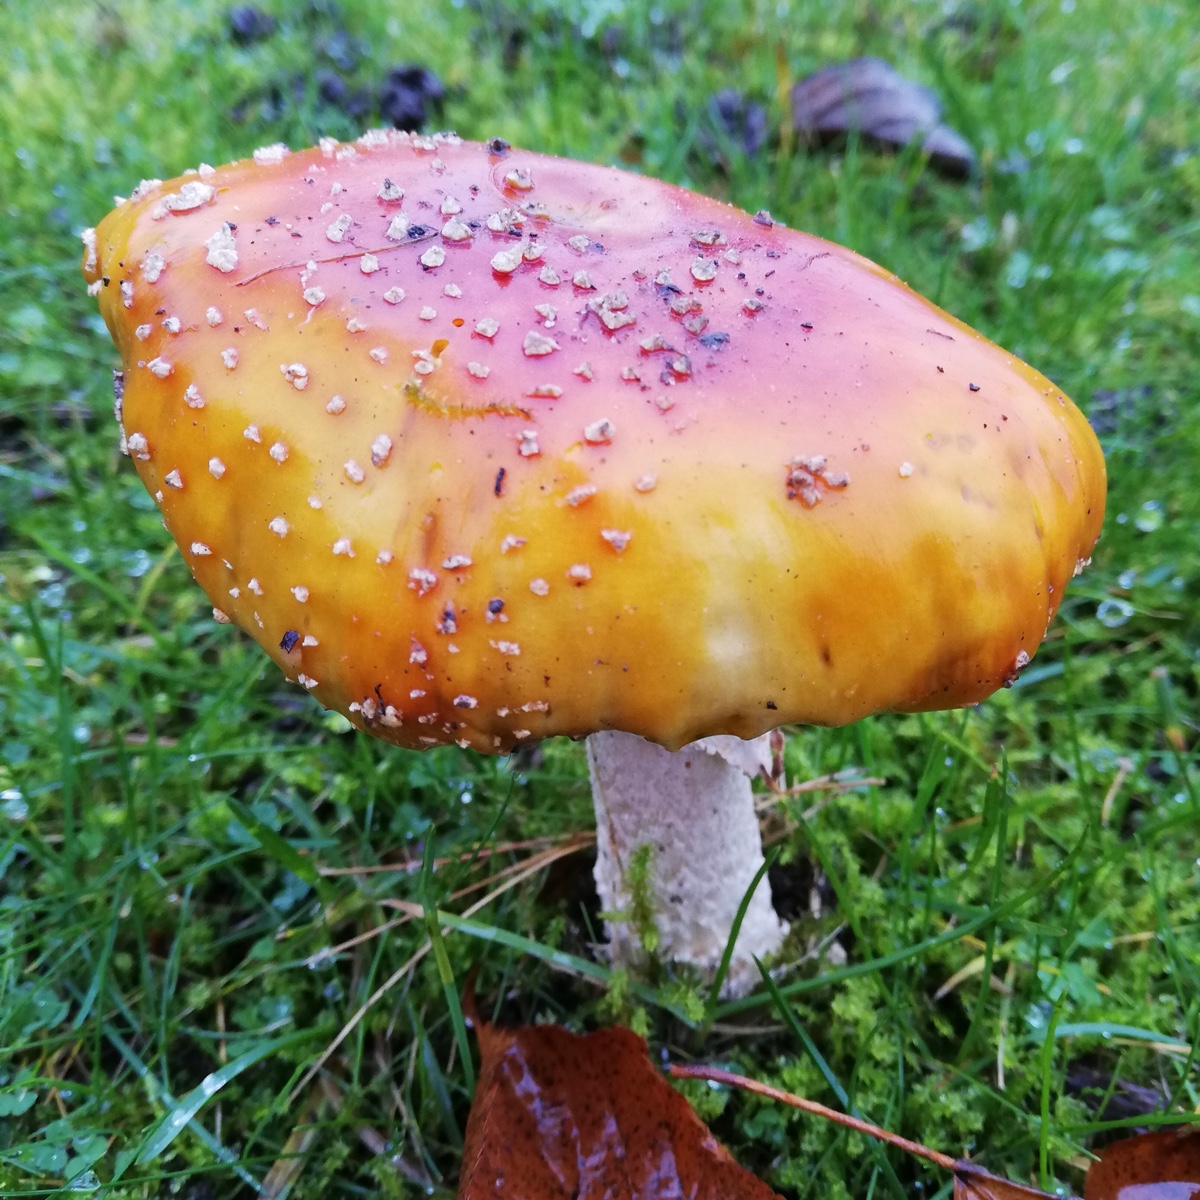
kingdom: Fungi
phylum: Basidiomycota
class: Agaricomycetes
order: Agaricales
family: Amanitaceae
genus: Amanita
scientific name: Amanita muscaria
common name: rød fluesvamp
